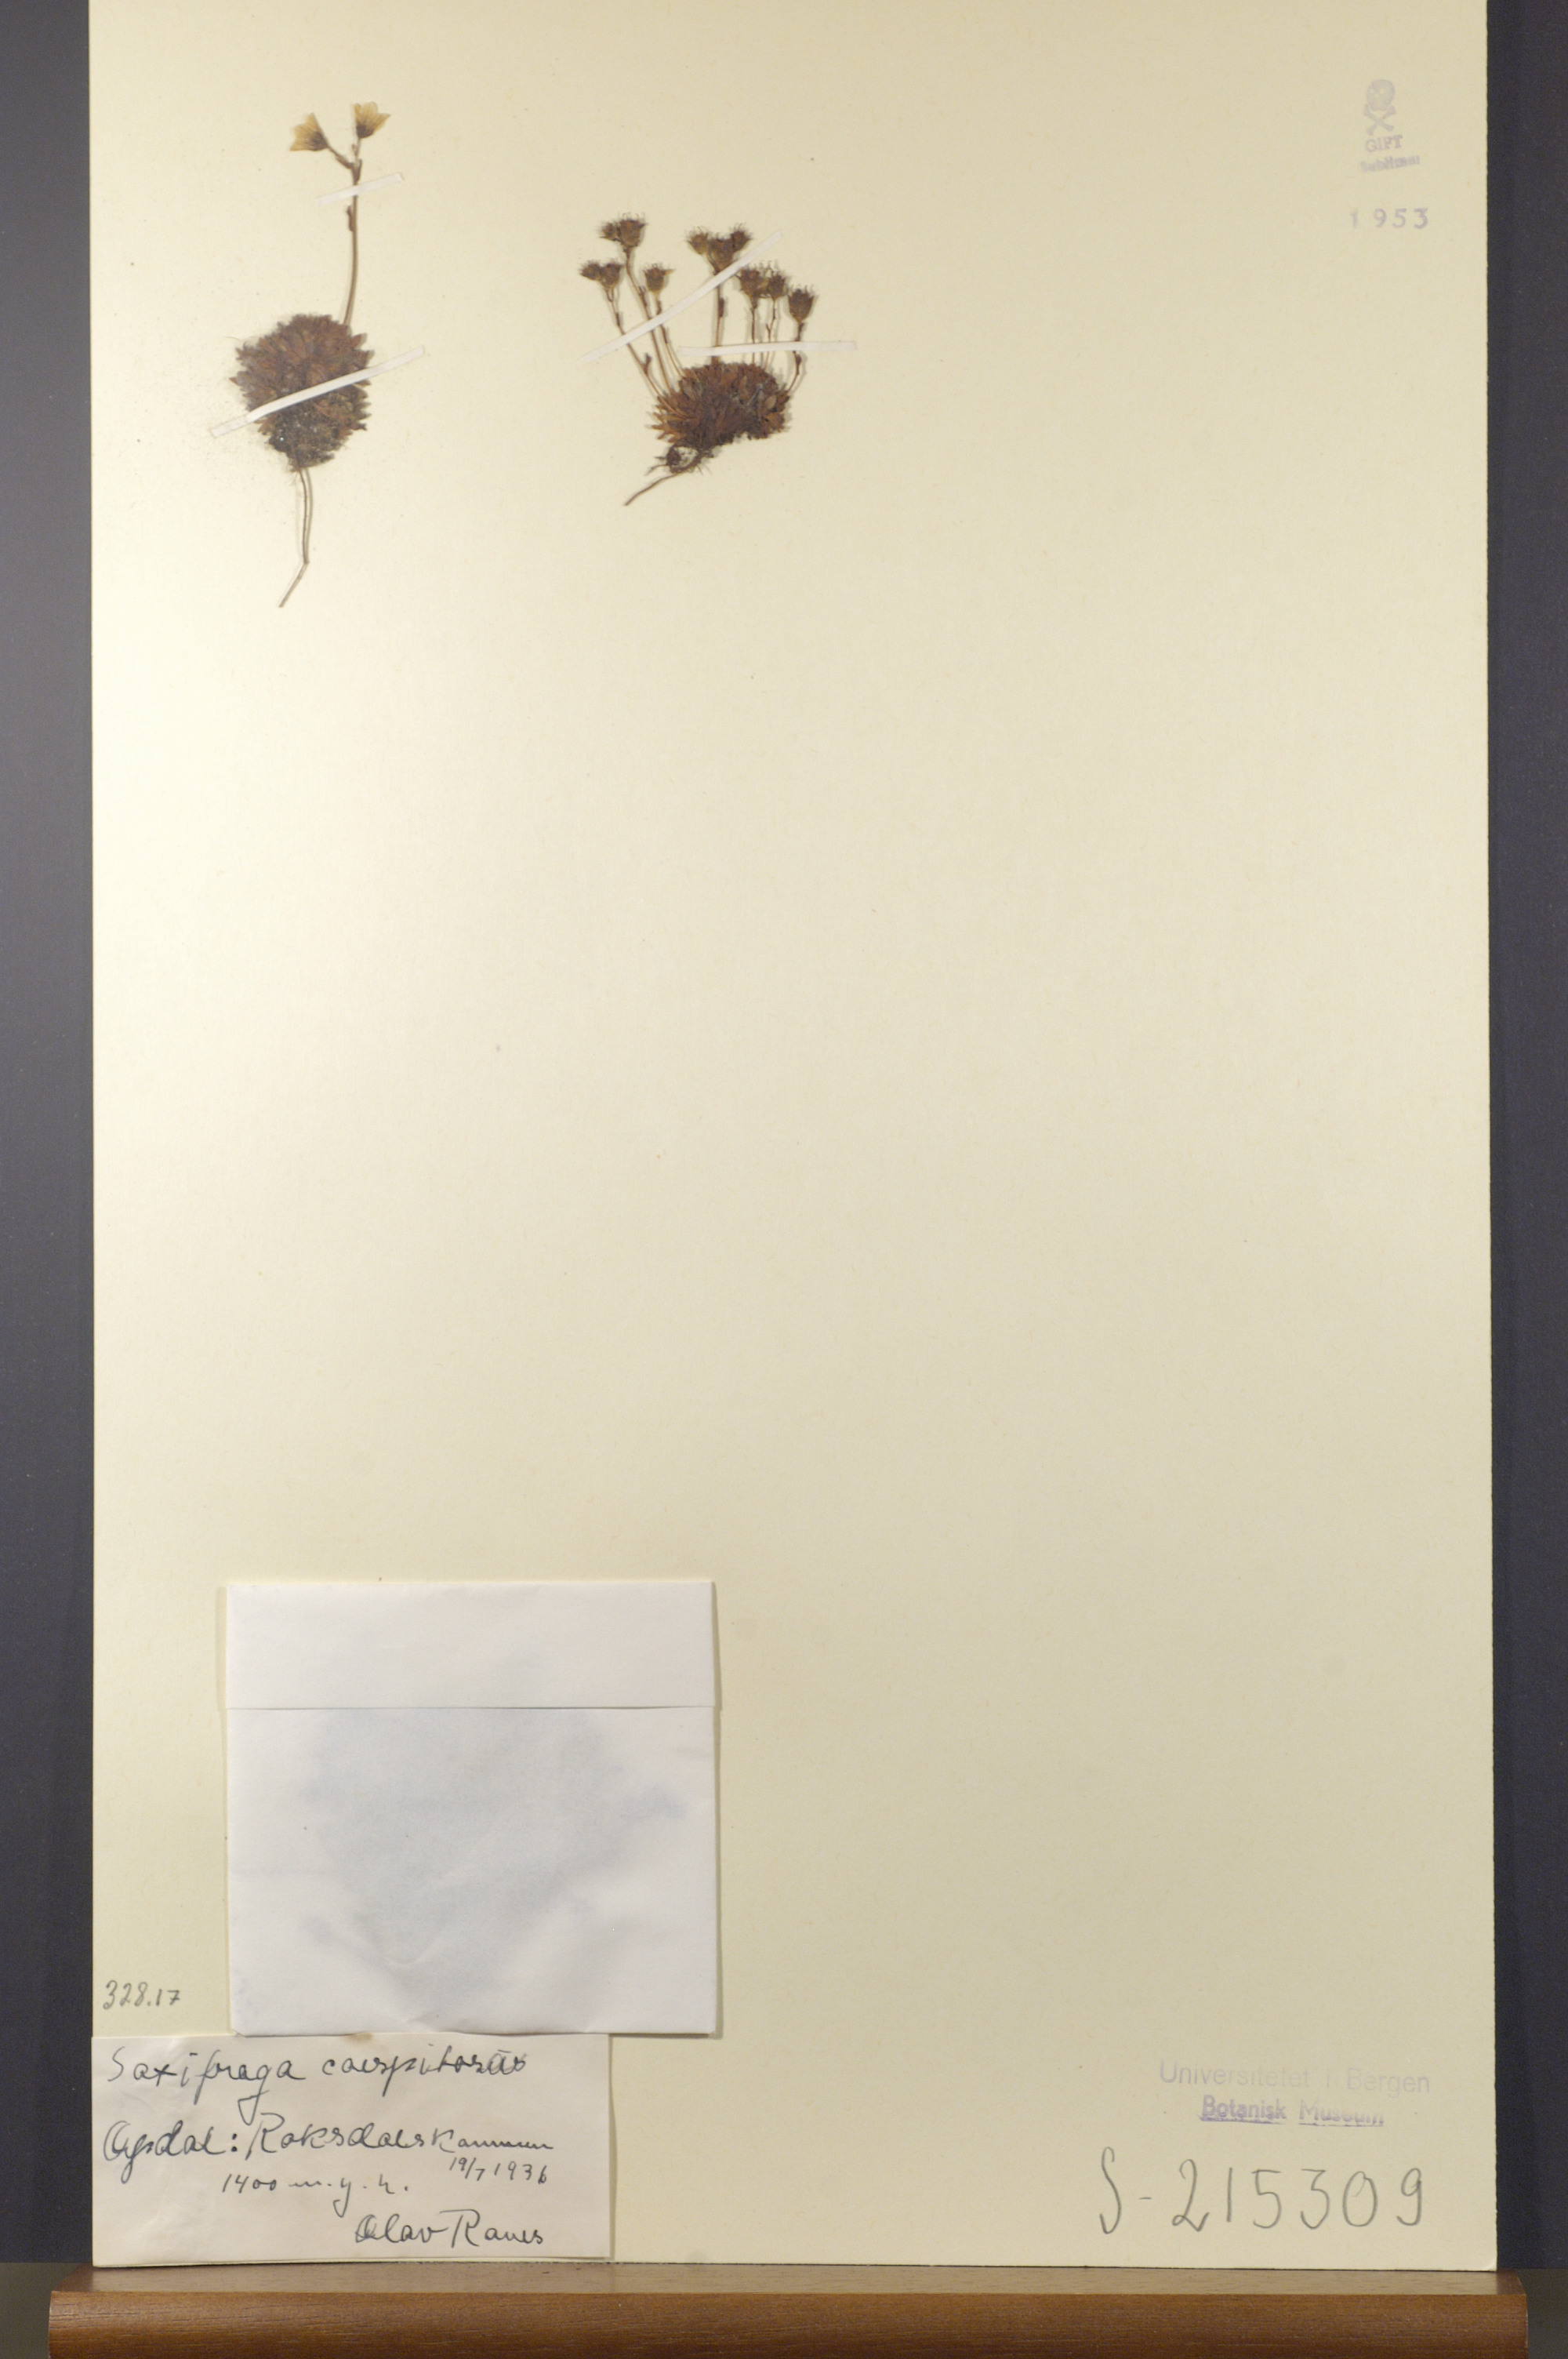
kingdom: Plantae
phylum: Tracheophyta
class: Magnoliopsida
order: Saxifragales
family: Saxifragaceae
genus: Saxifraga
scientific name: Saxifraga cespitosa
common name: Tufted saxifrage
